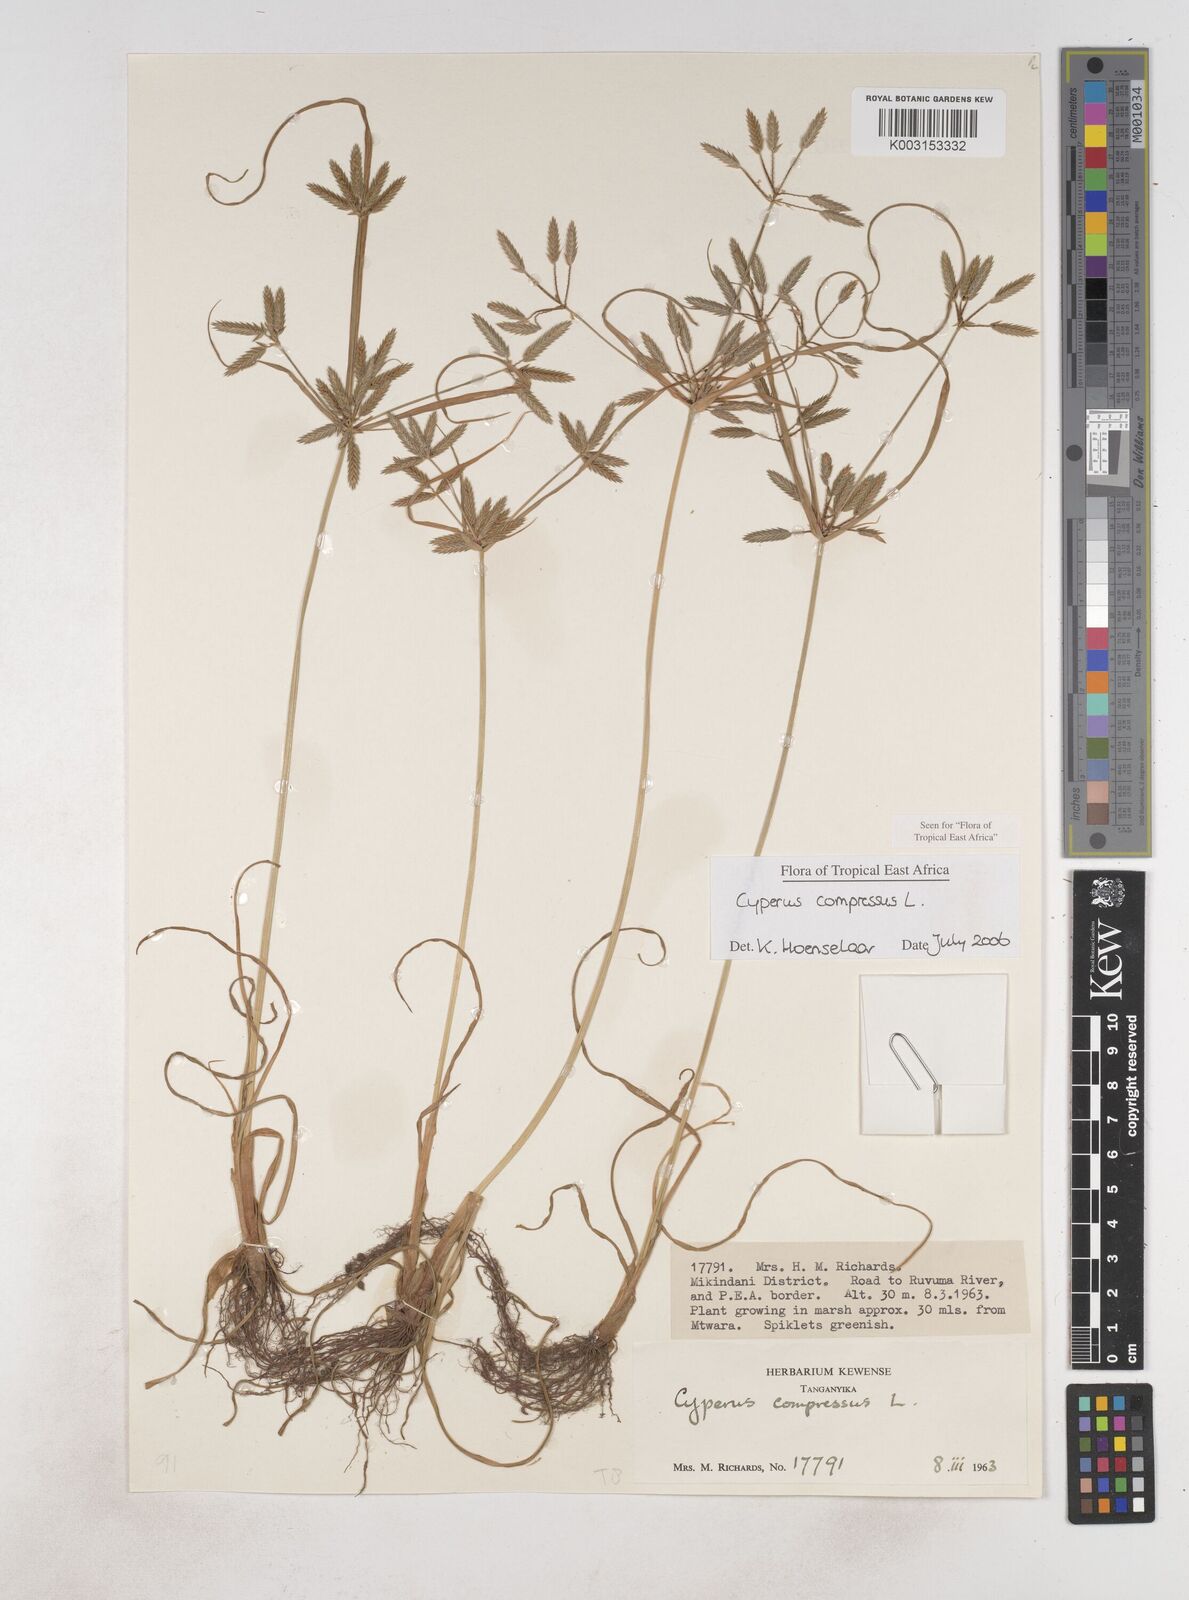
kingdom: Plantae
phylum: Tracheophyta
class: Liliopsida
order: Poales
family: Cyperaceae
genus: Cyperus
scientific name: Cyperus compressus
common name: Poorland flatsedge
